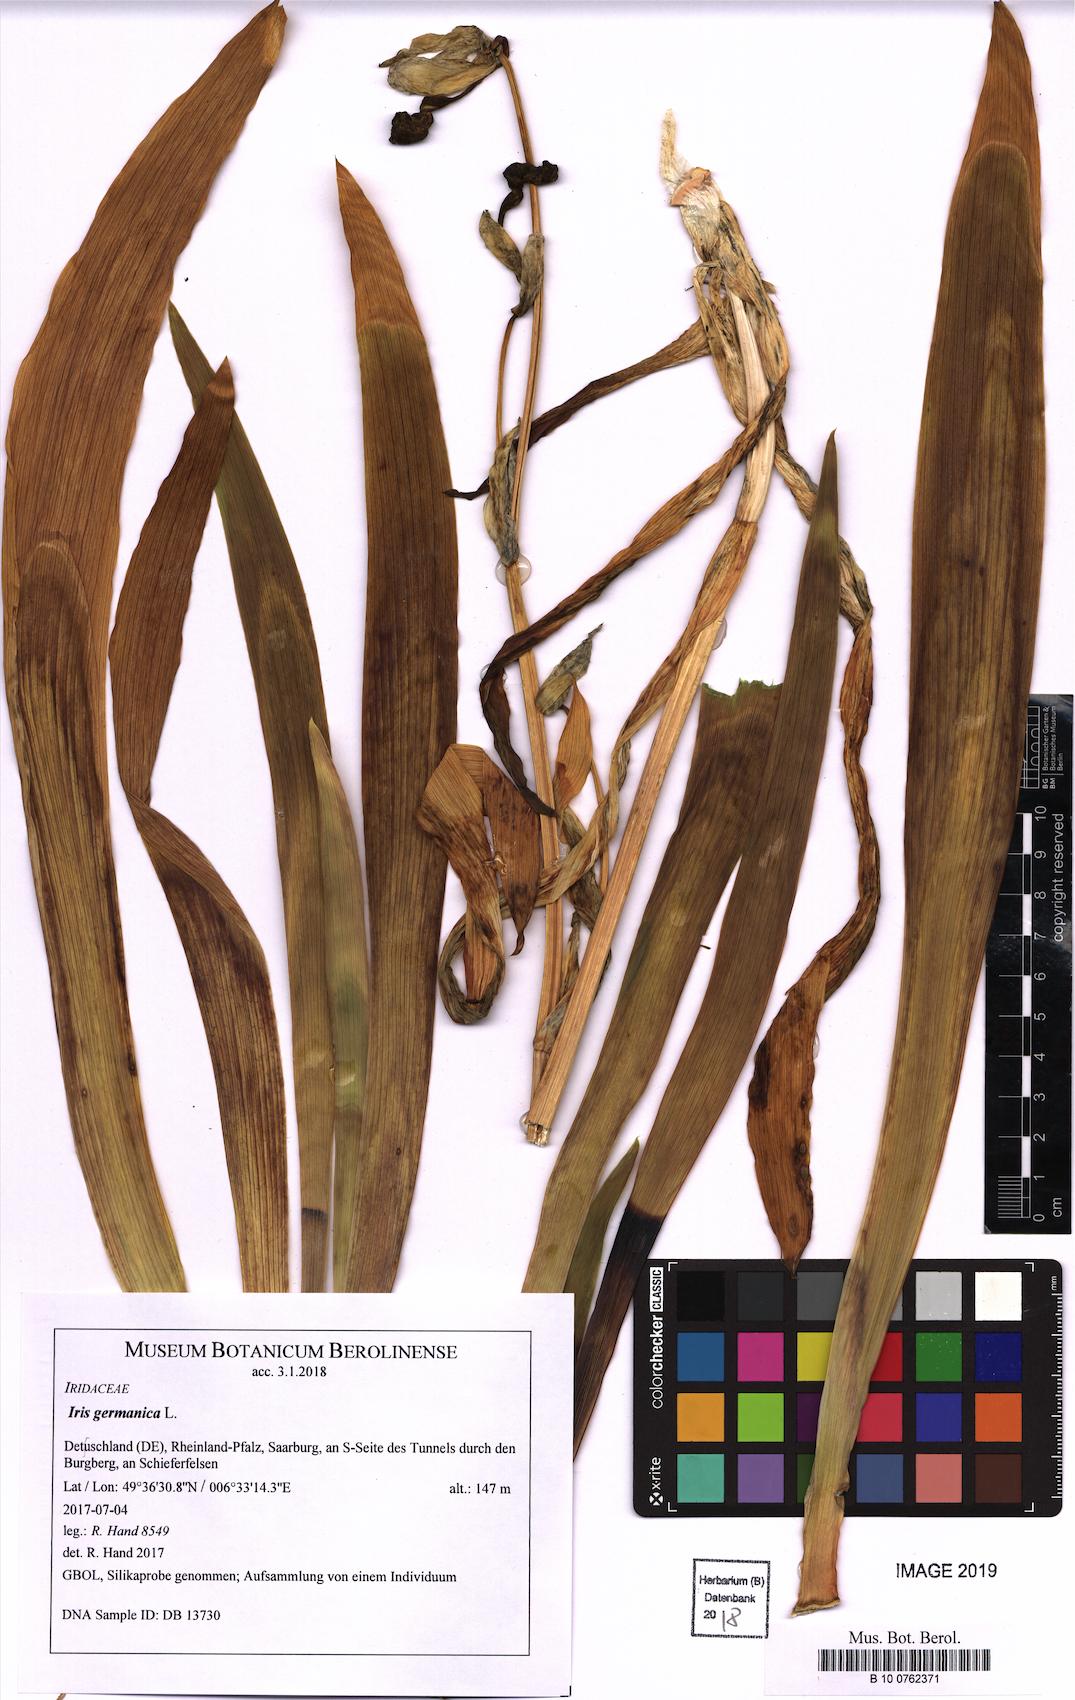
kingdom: Plantae
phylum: Tracheophyta
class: Liliopsida
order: Asparagales
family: Iridaceae
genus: Iris
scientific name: Iris germanica
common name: German iris
